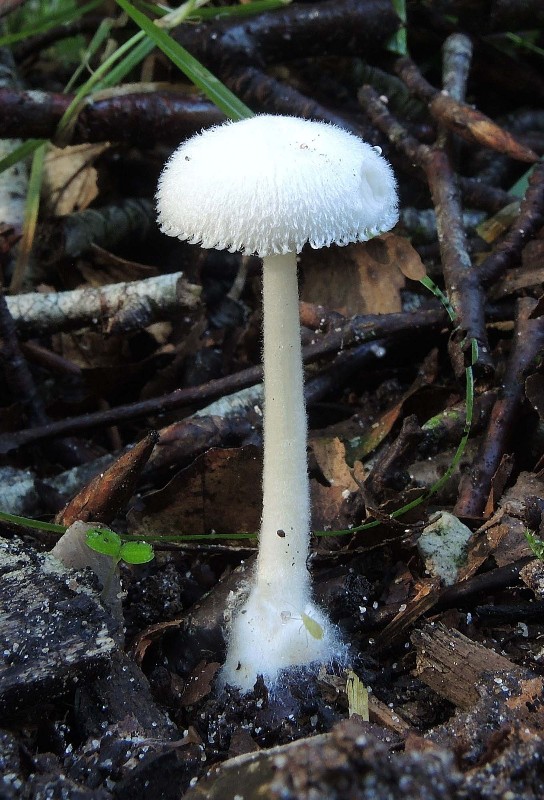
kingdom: Fungi
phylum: Basidiomycota
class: Agaricomycetes
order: Agaricales
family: Pluteaceae
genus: Volvariella
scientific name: Volvariella hypopithys
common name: dunstokket posesvamp
